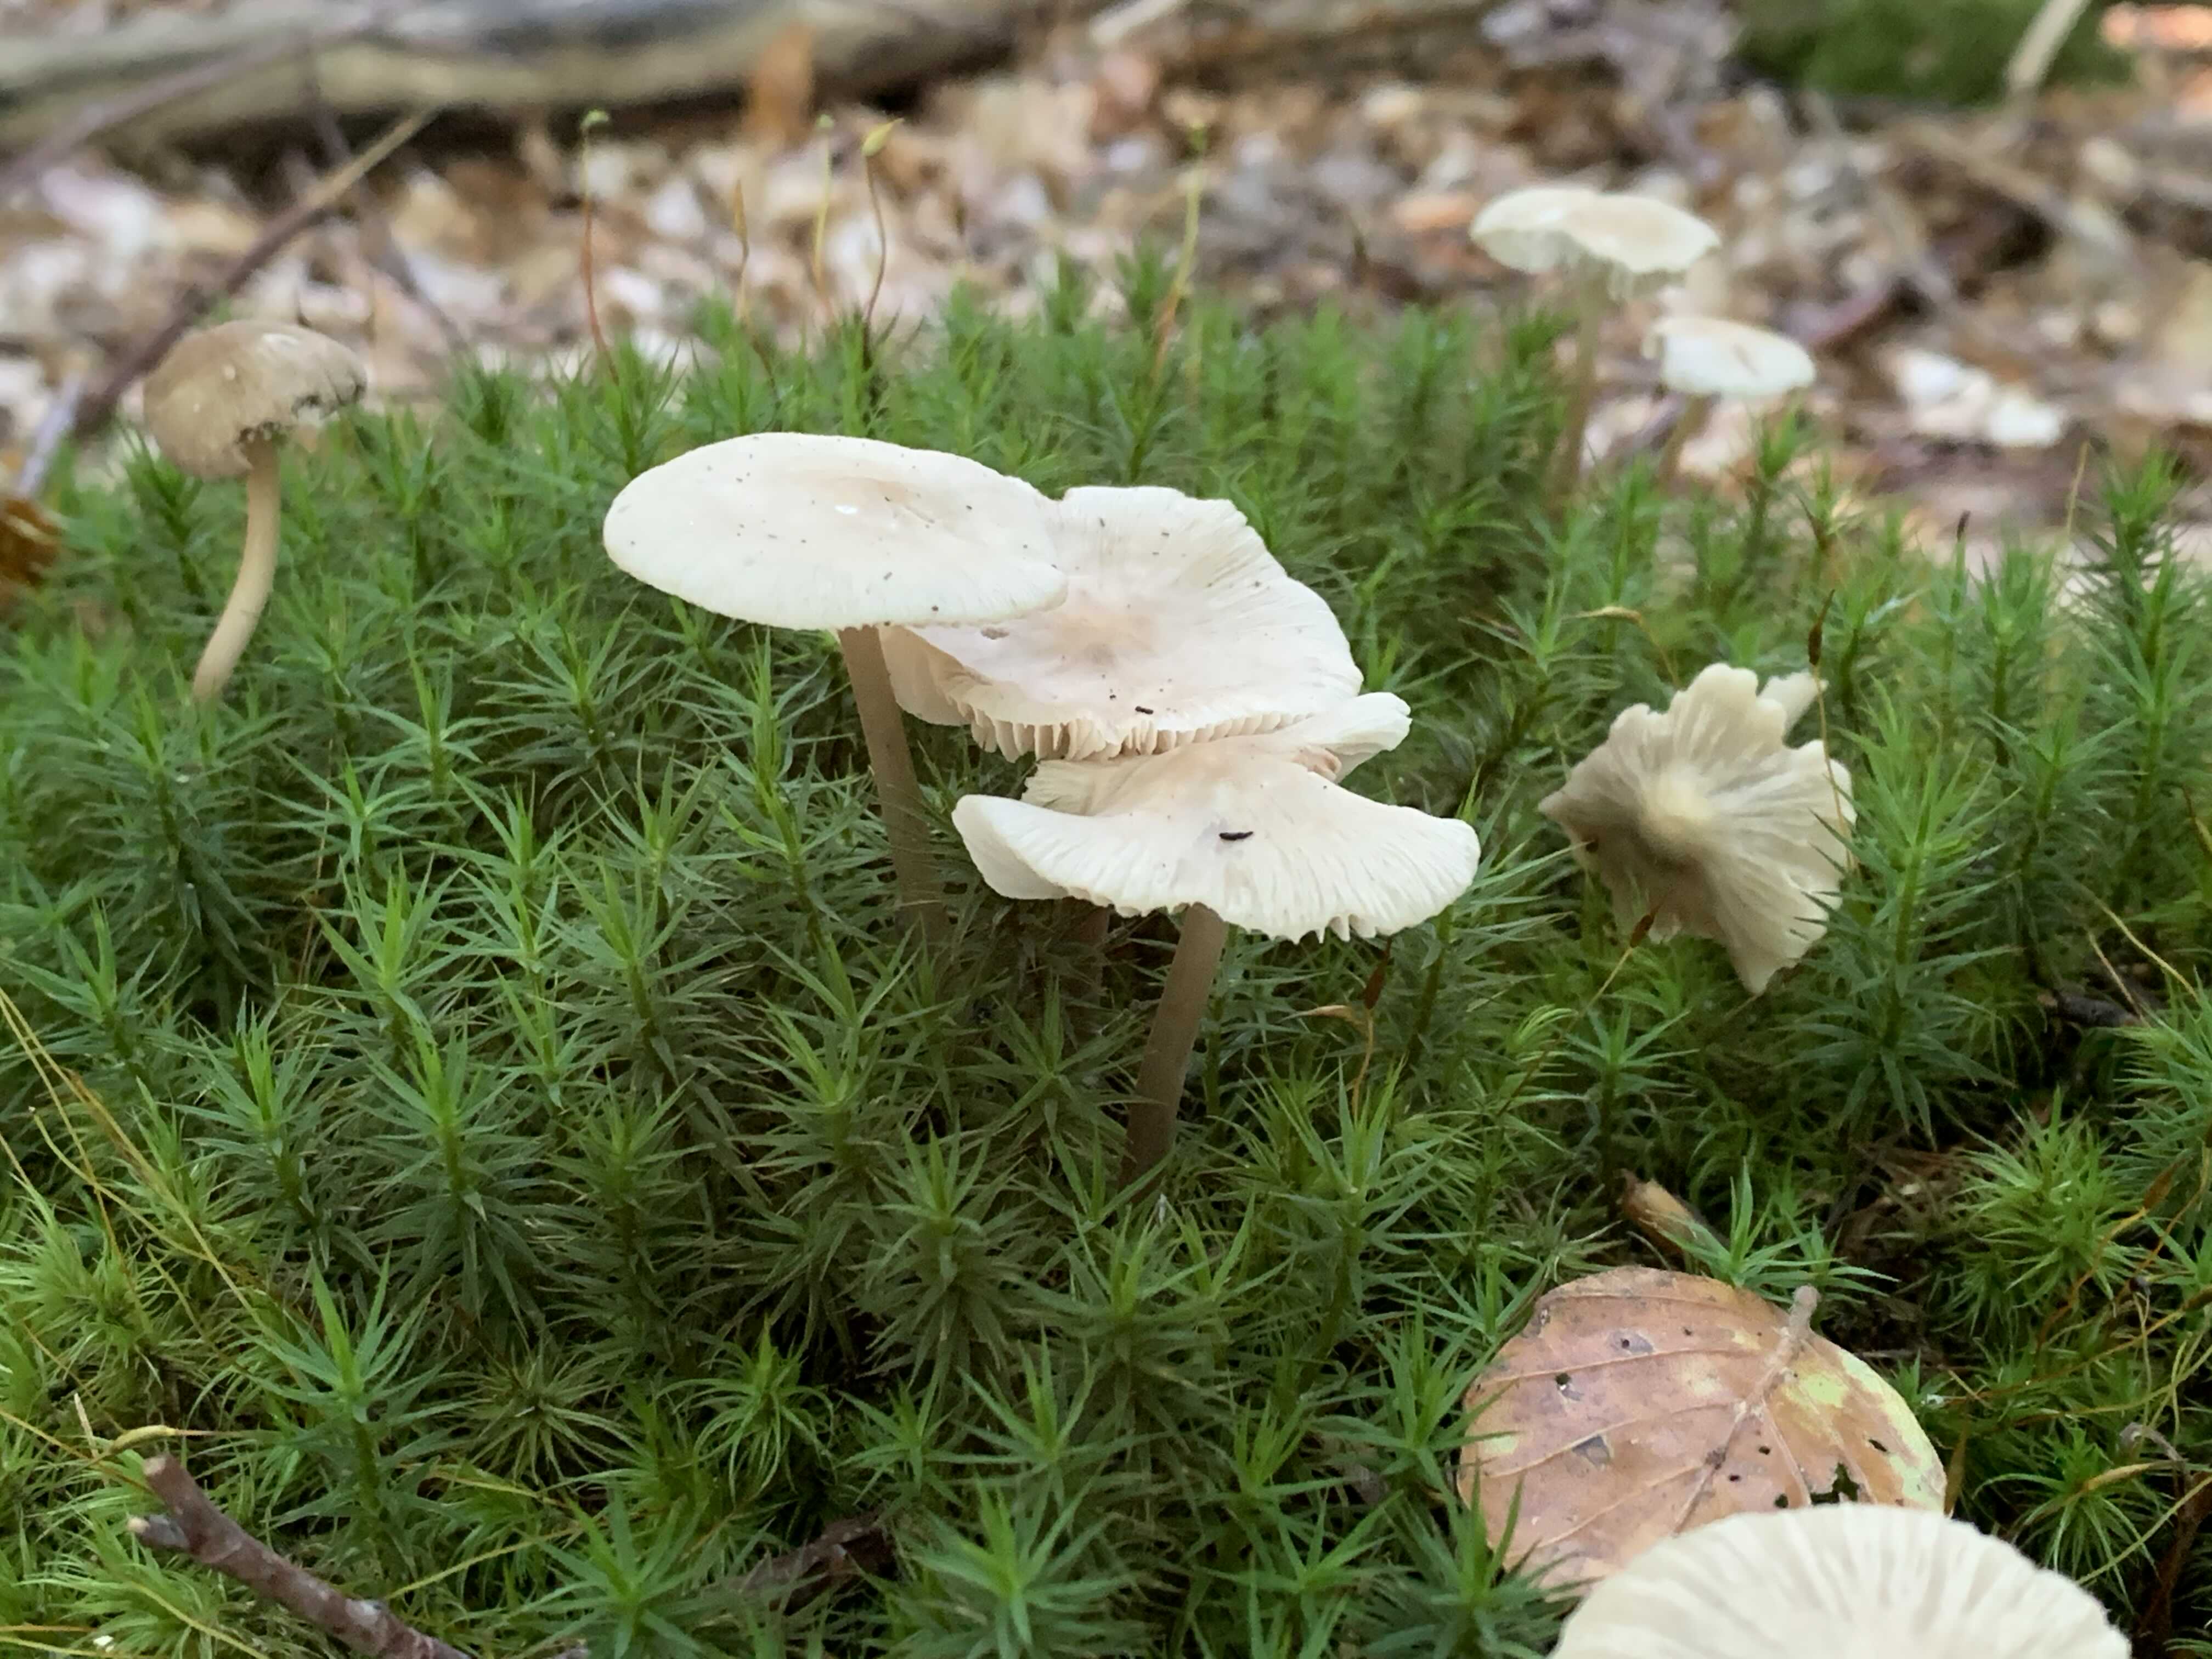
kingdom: Fungi
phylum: Basidiomycota
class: Agaricomycetes
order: Agaricales
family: Mycenaceae
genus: Mycena
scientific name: Mycena galericulata
